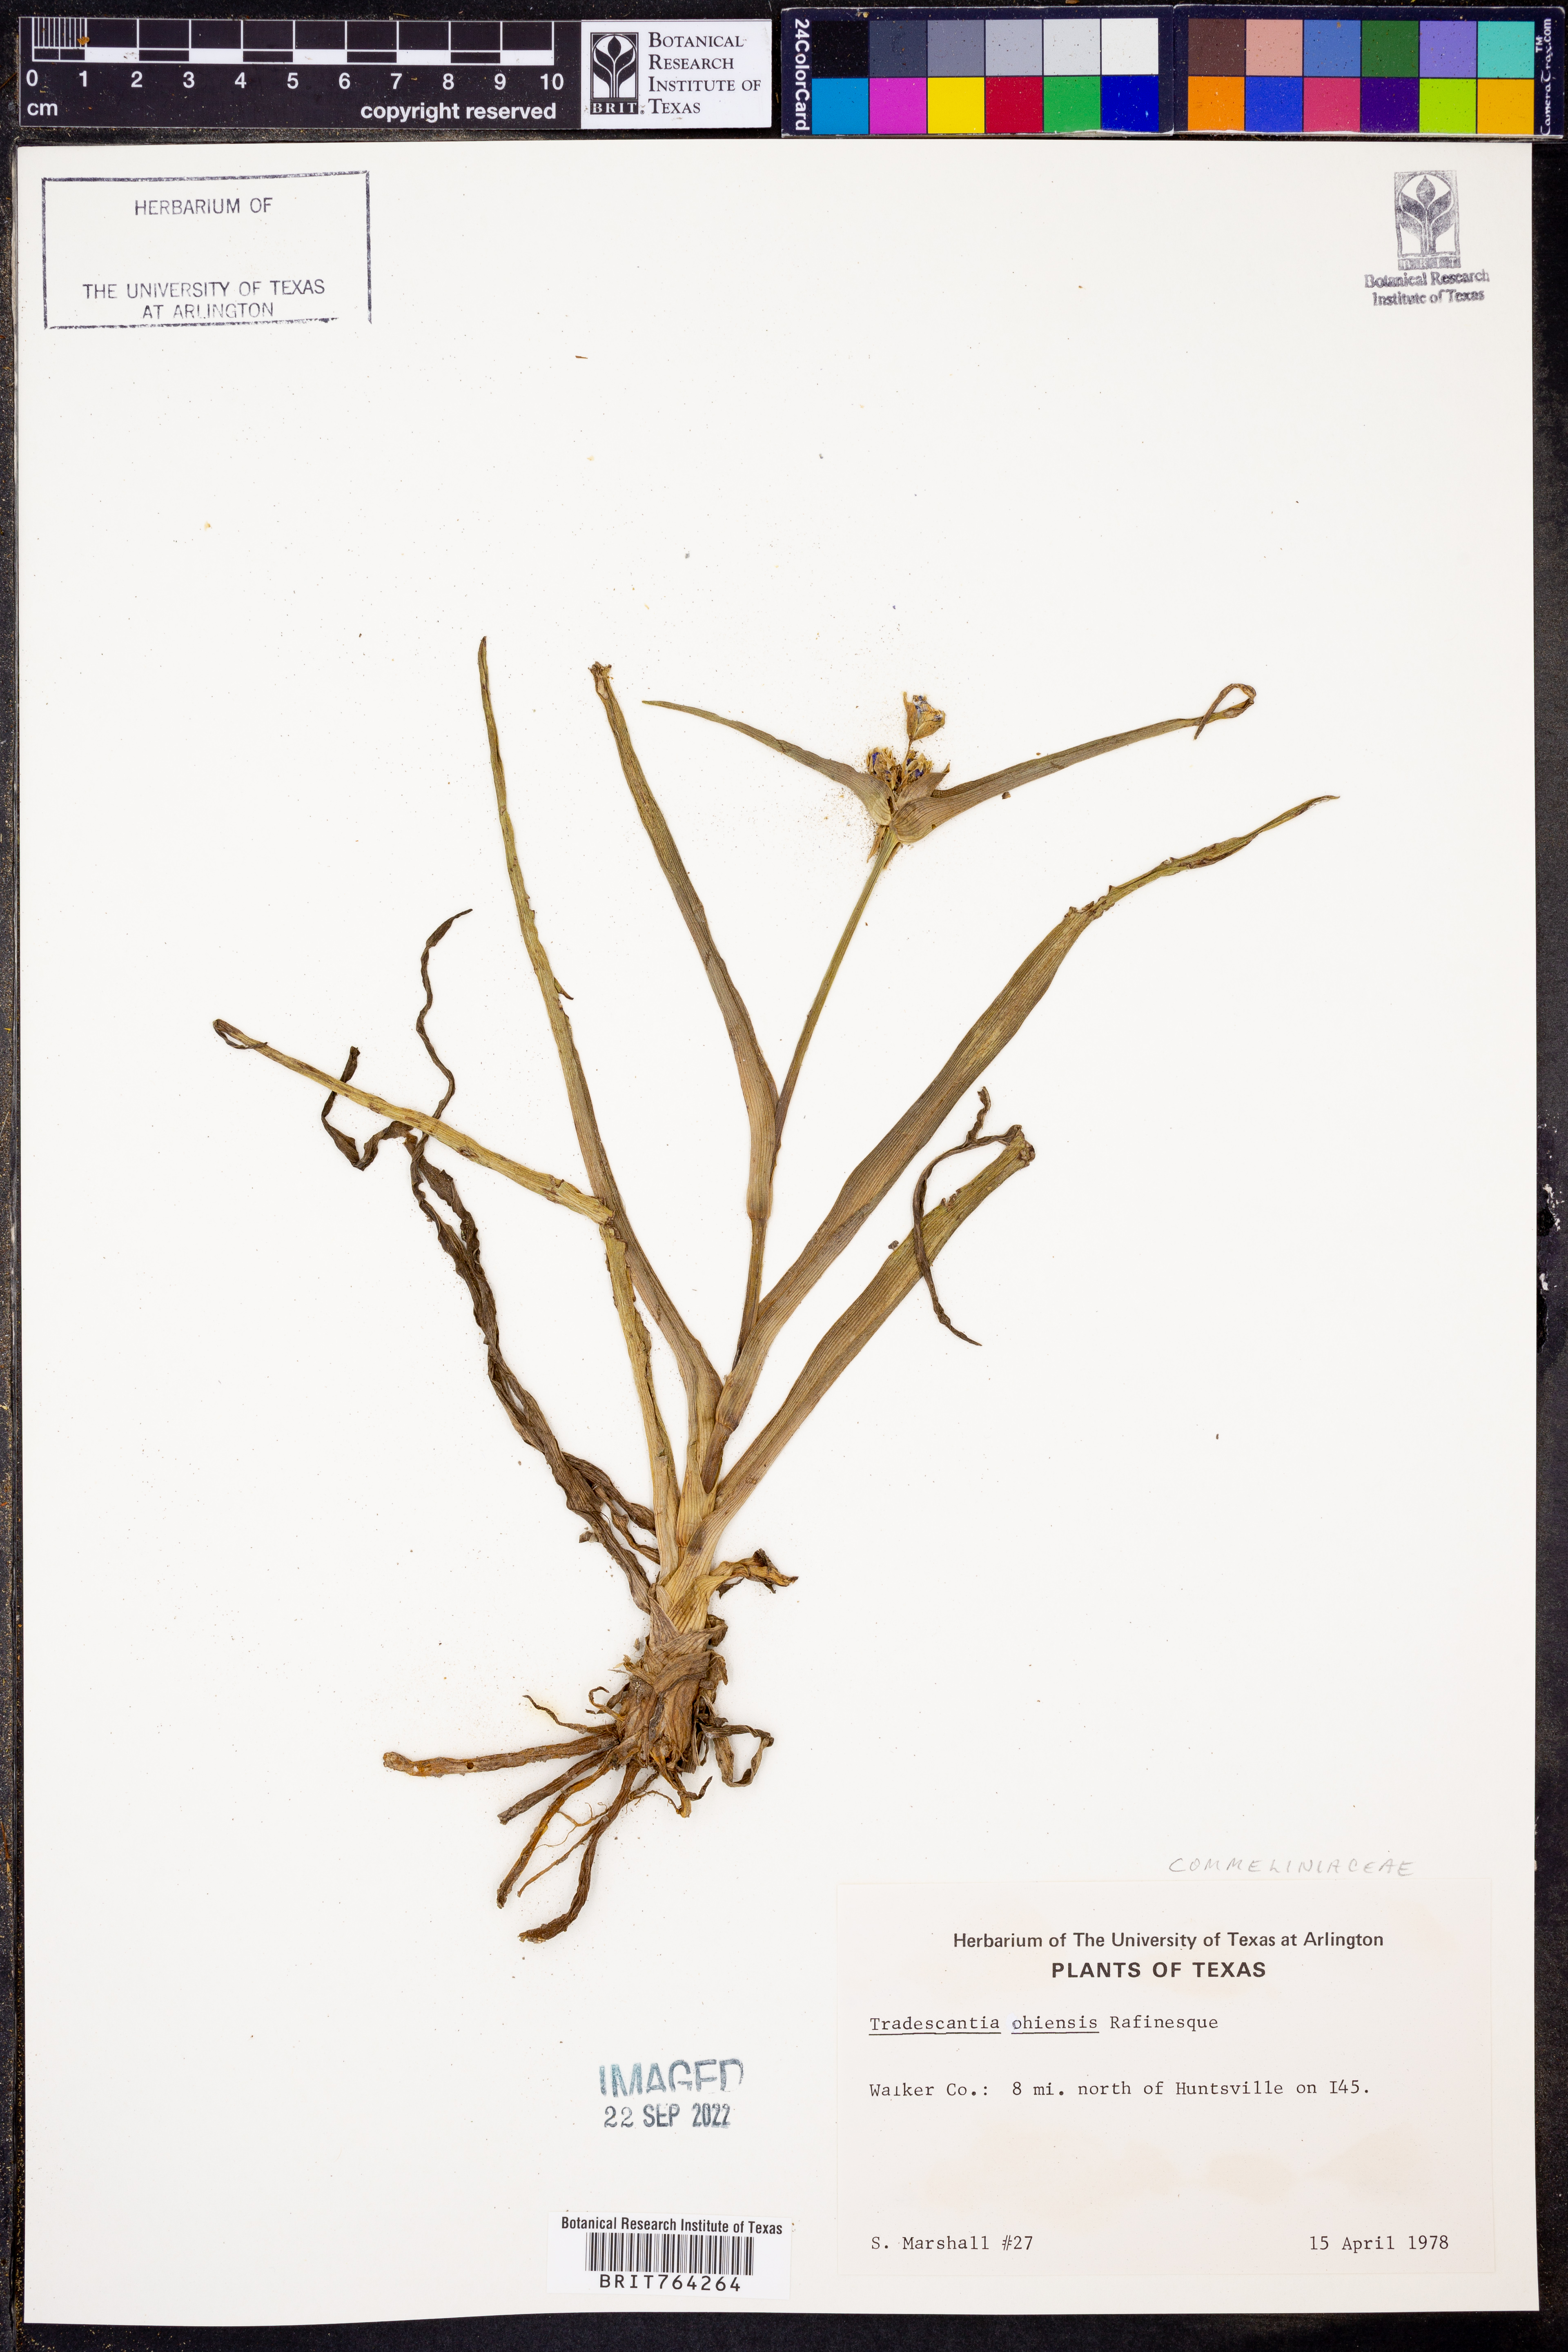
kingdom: Plantae
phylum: Tracheophyta
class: Liliopsida
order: Commelinales
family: Commelinaceae
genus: Tradescantia
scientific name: Tradescantia ohiensis
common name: Ohio spiderwort
